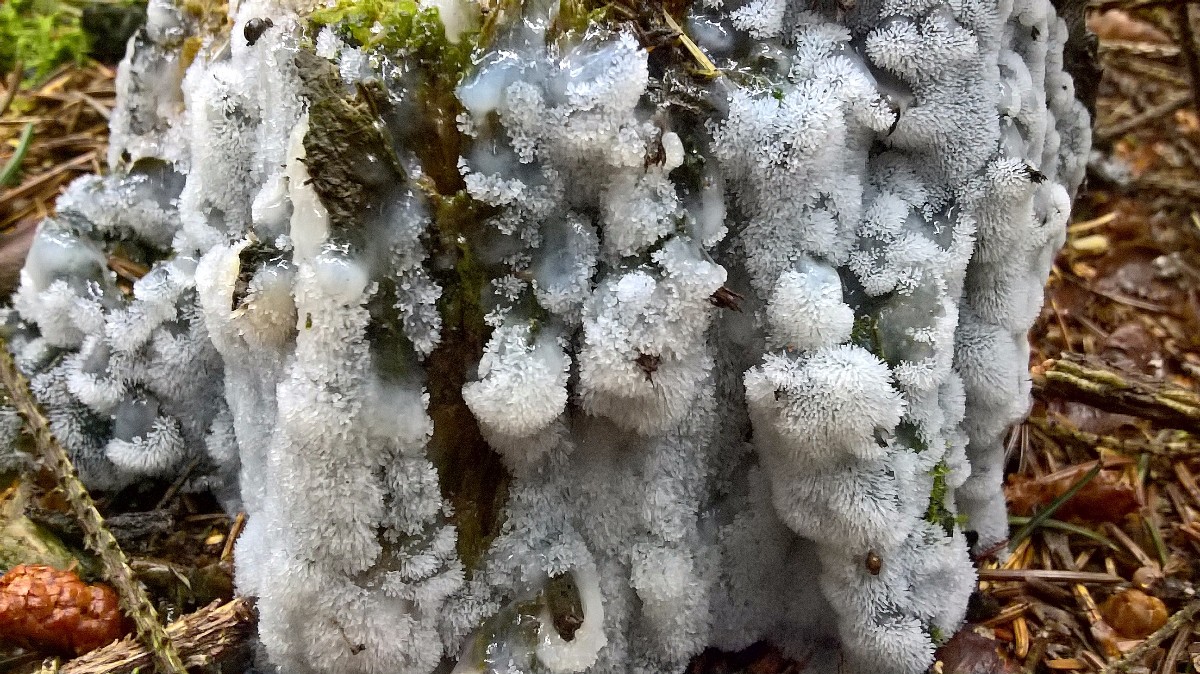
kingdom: Protozoa
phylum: Mycetozoa
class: Protosteliomycetes
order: Ceratiomyxales
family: Ceratiomyxaceae
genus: Ceratiomyxa
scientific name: Ceratiomyxa fruticulosa
